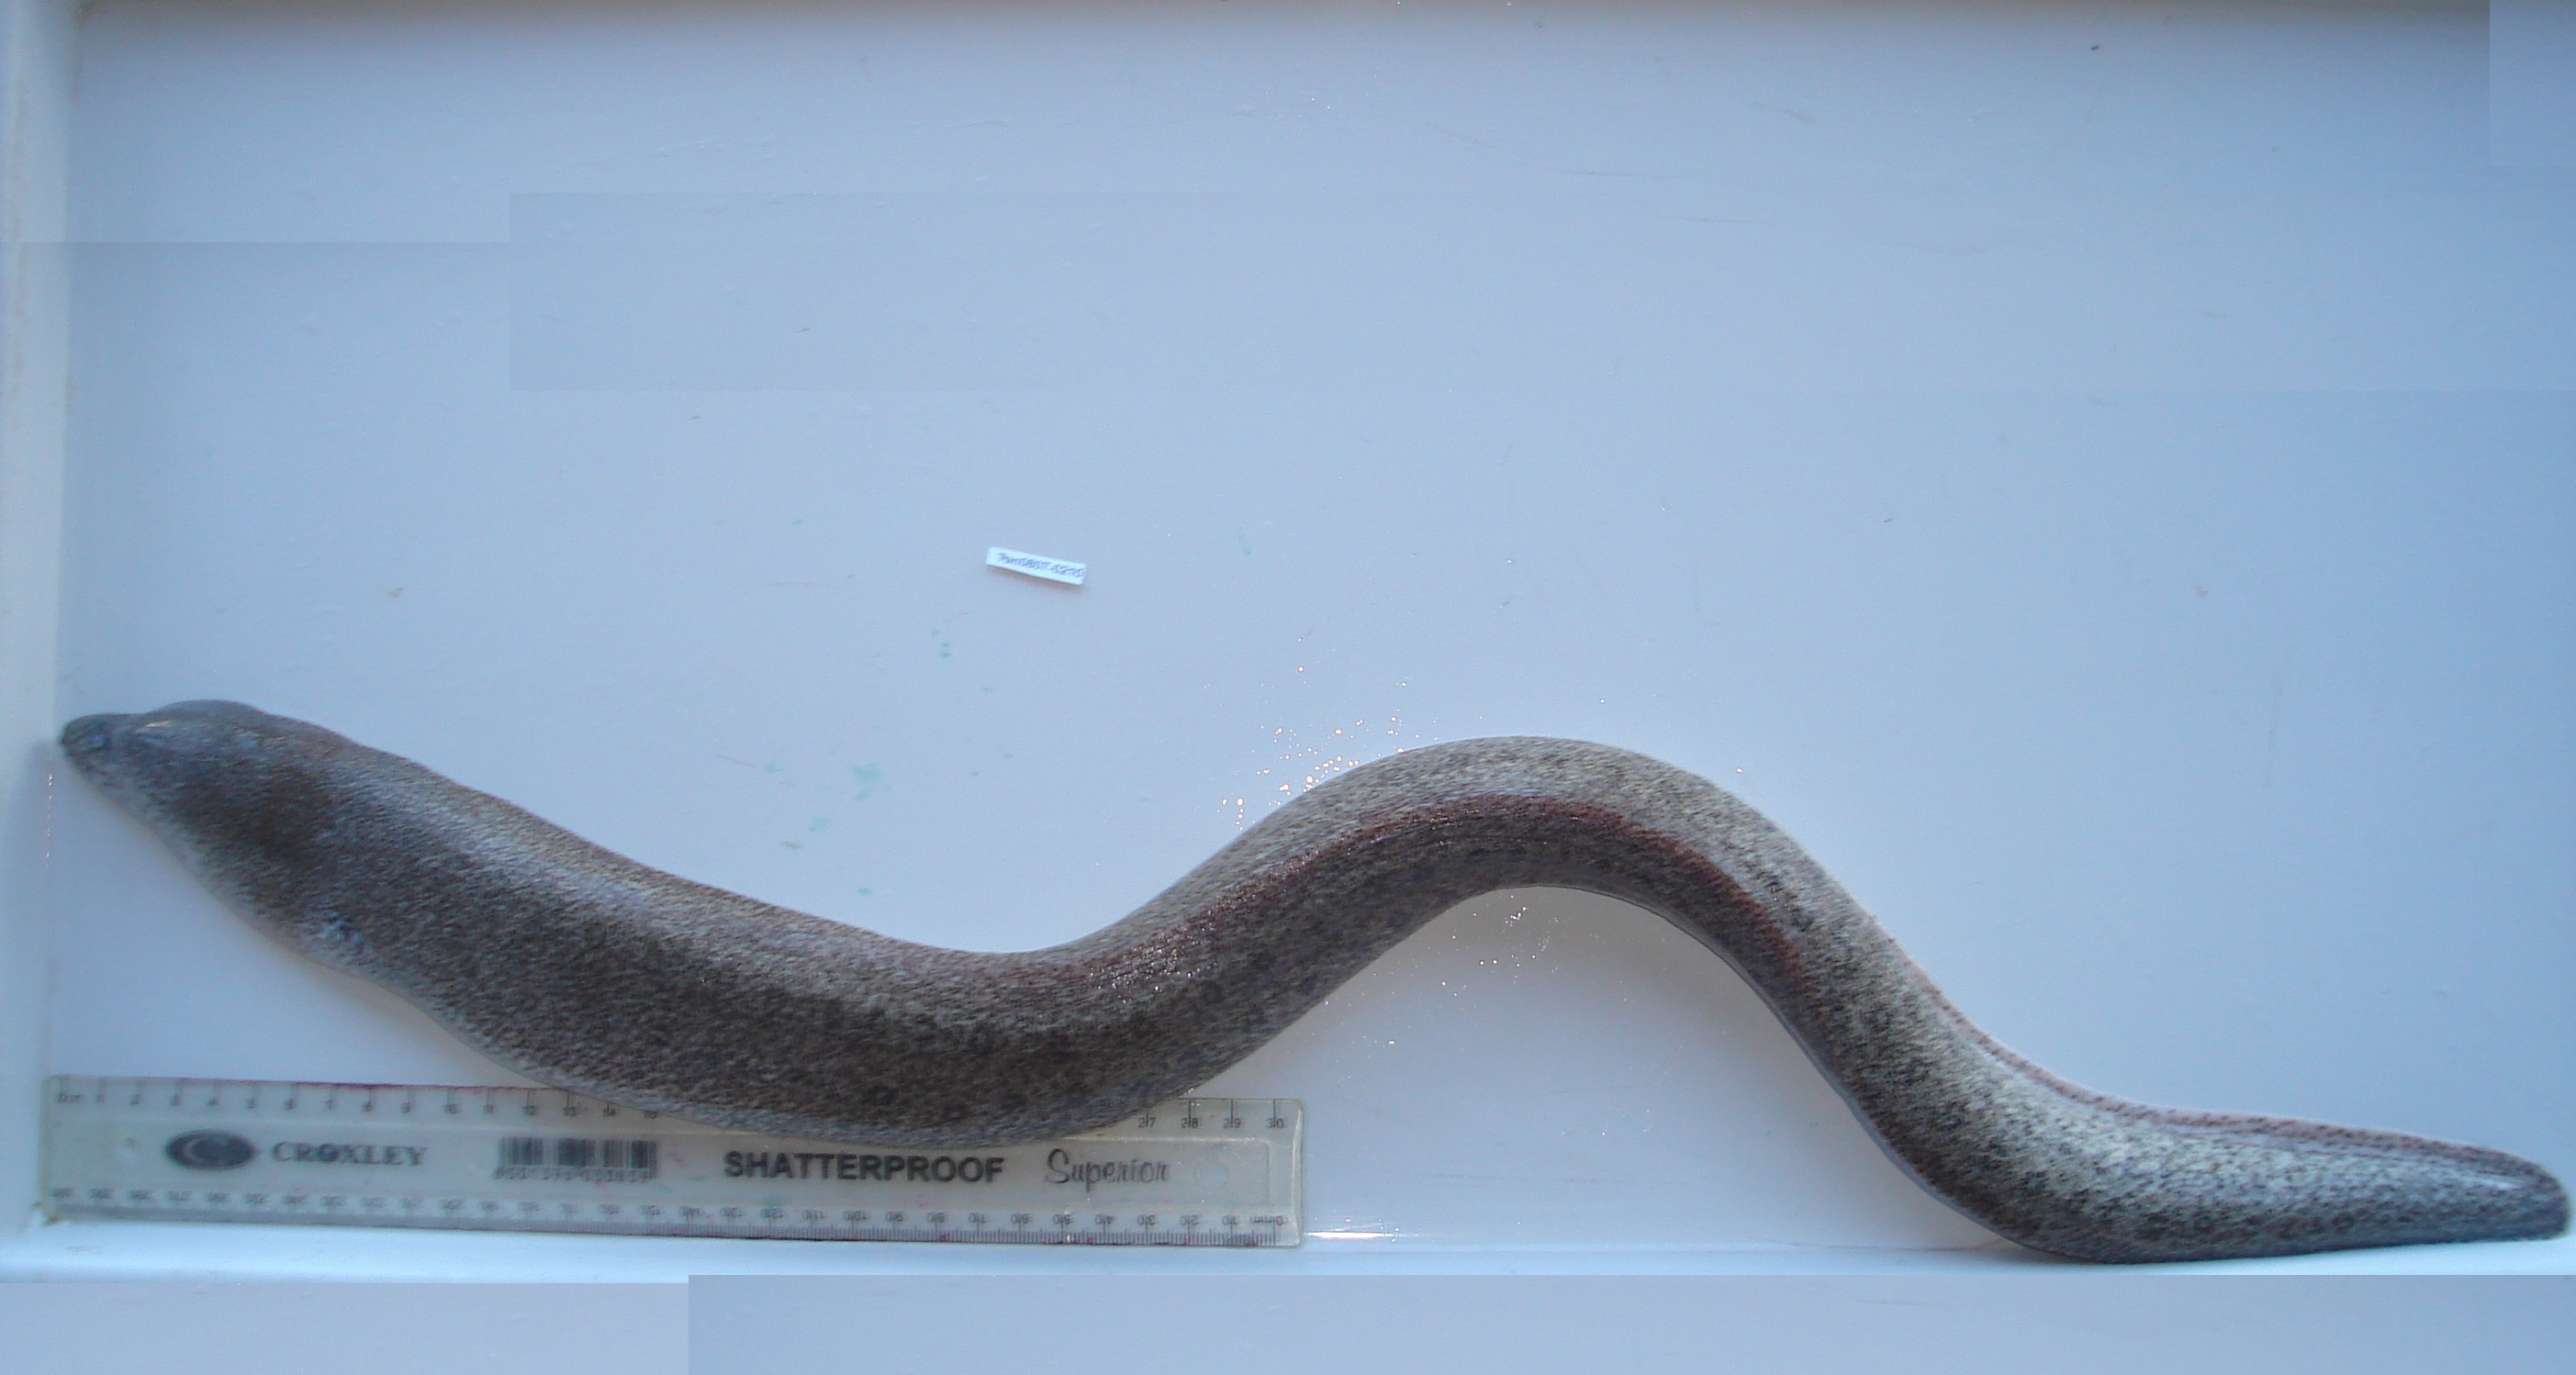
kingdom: Animalia
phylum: Chordata
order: Anguilliformes
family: Muraenidae
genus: Gymnothorax
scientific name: Gymnothorax eurostus
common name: Stout moray
